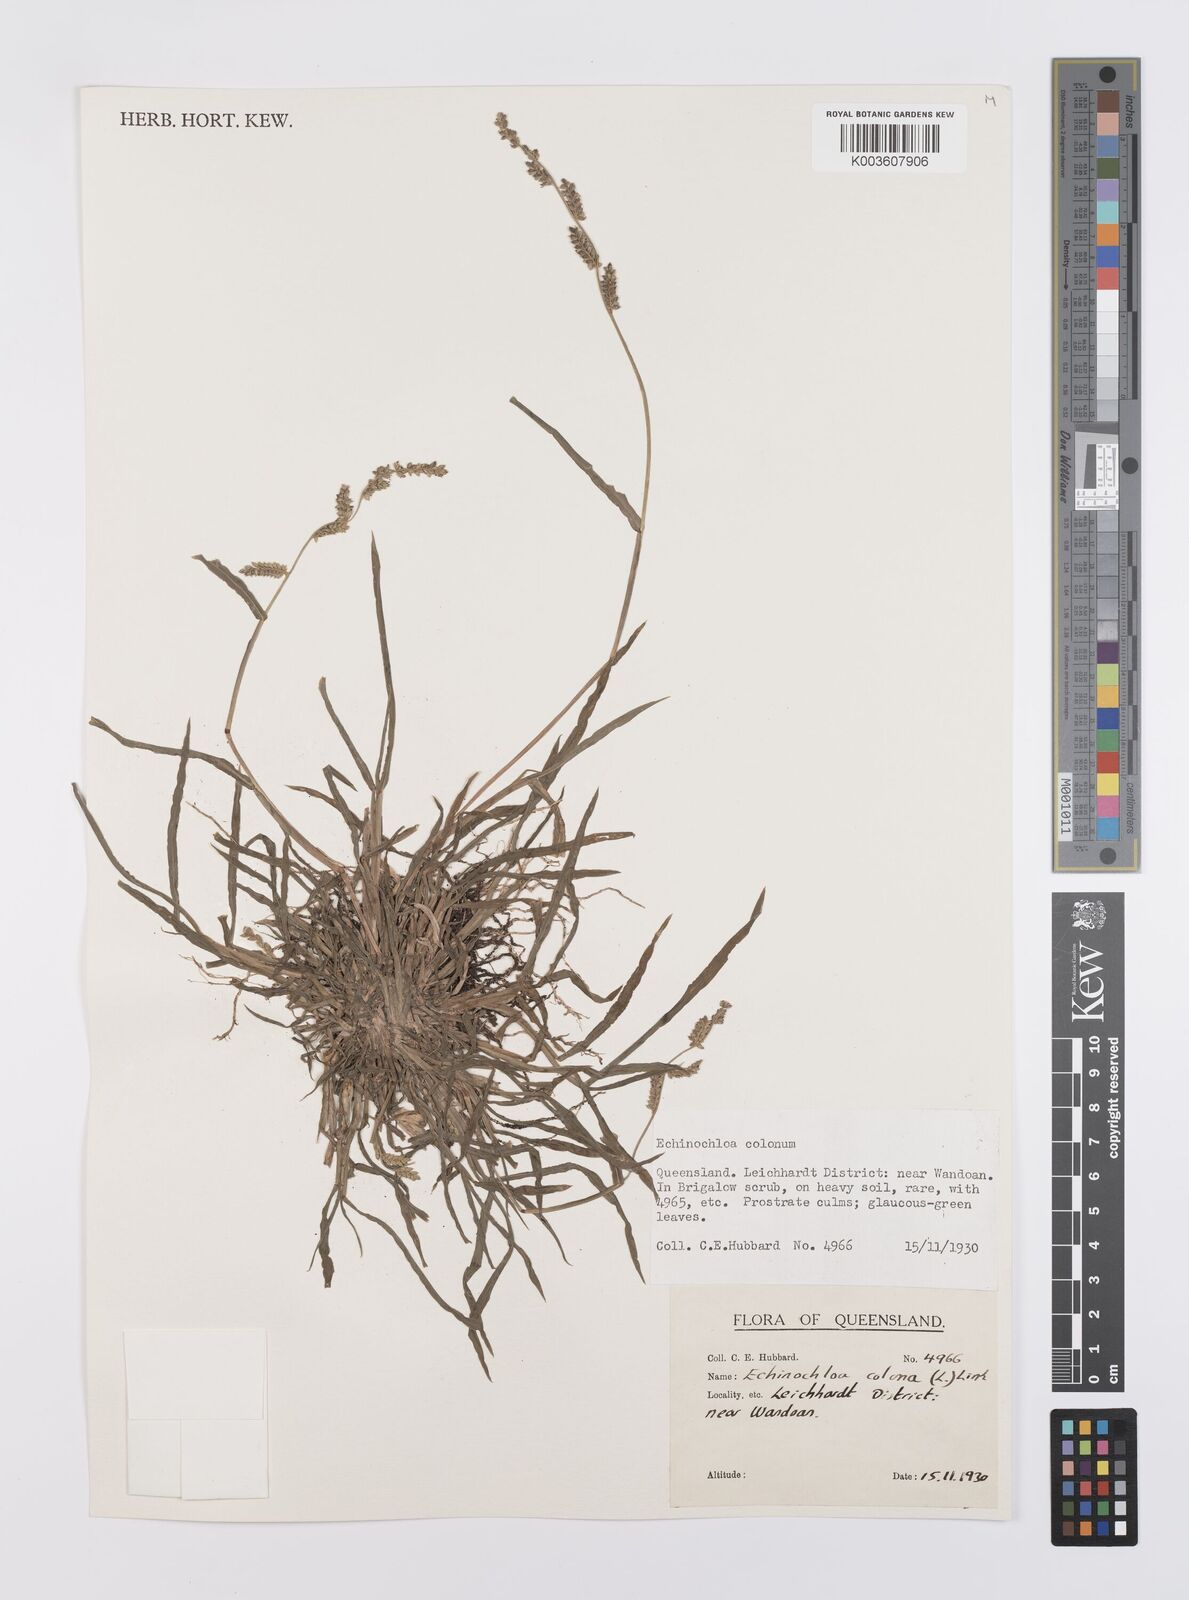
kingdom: Plantae
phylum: Tracheophyta
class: Liliopsida
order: Poales
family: Poaceae
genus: Echinochloa
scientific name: Echinochloa colonum
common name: Jungle rice
